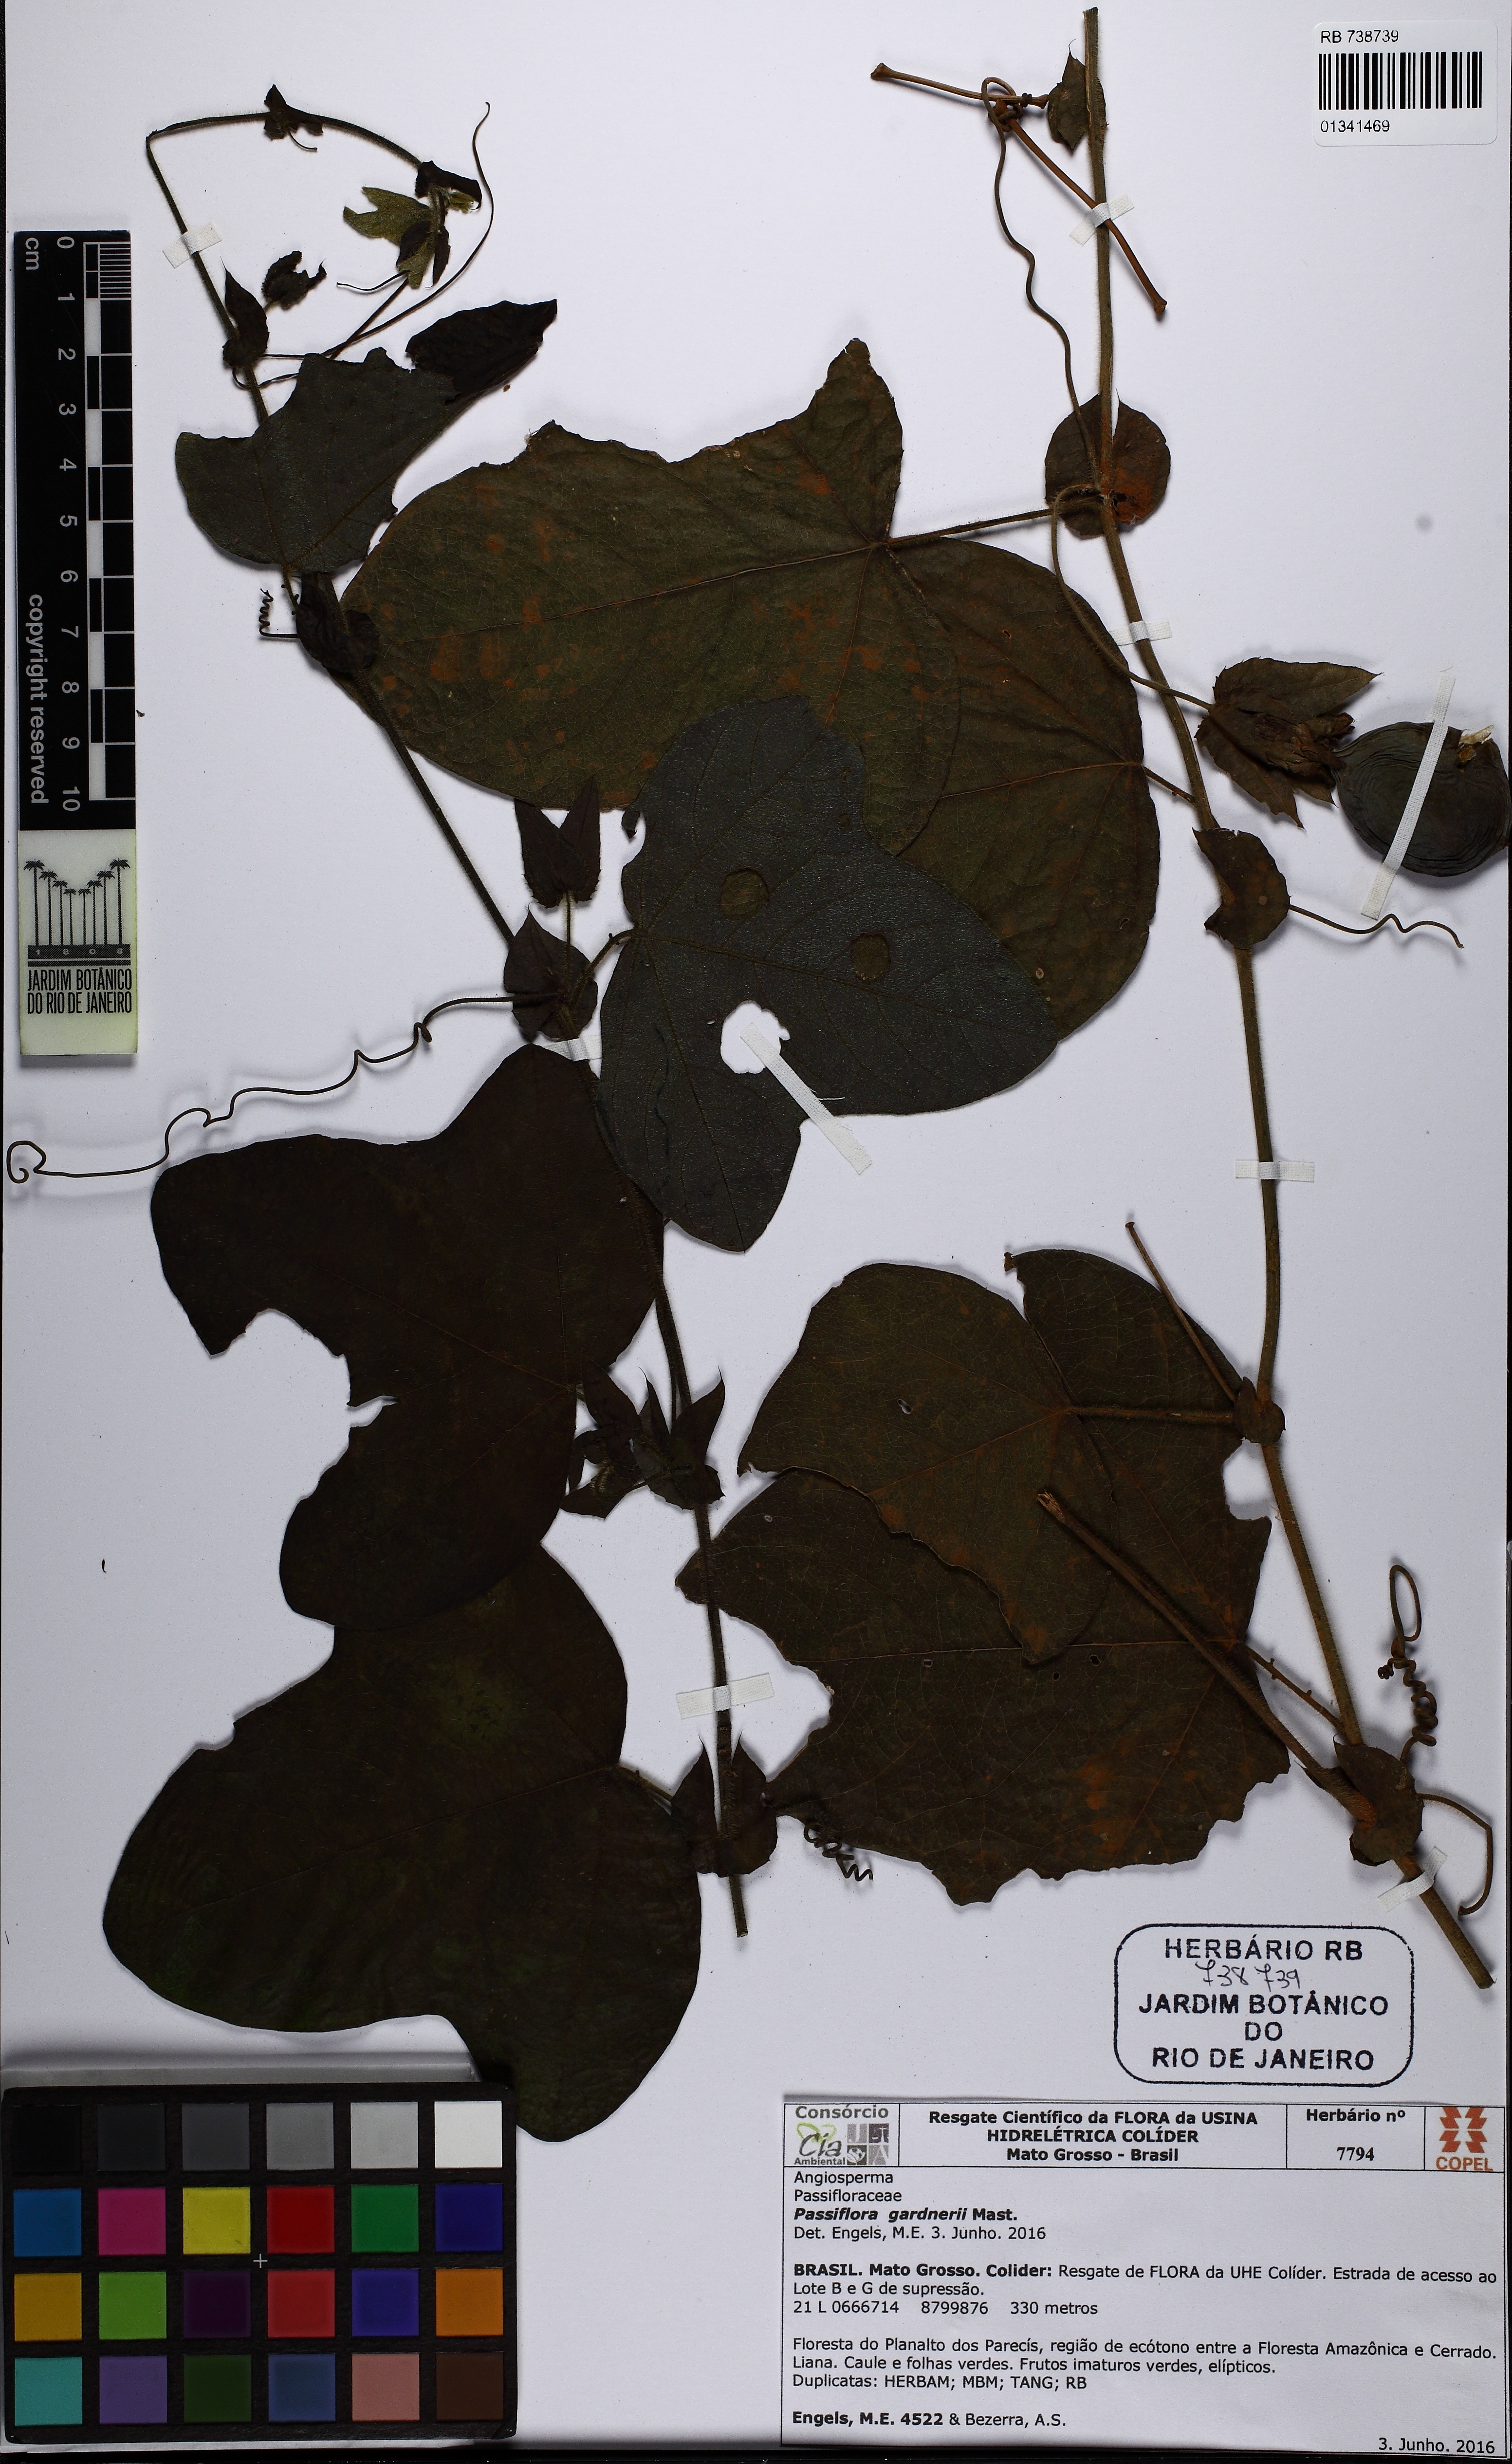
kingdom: Plantae
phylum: Tracheophyta
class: Magnoliopsida
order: Malpighiales
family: Passifloraceae
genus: Passiflora
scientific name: Passiflora gardneri
